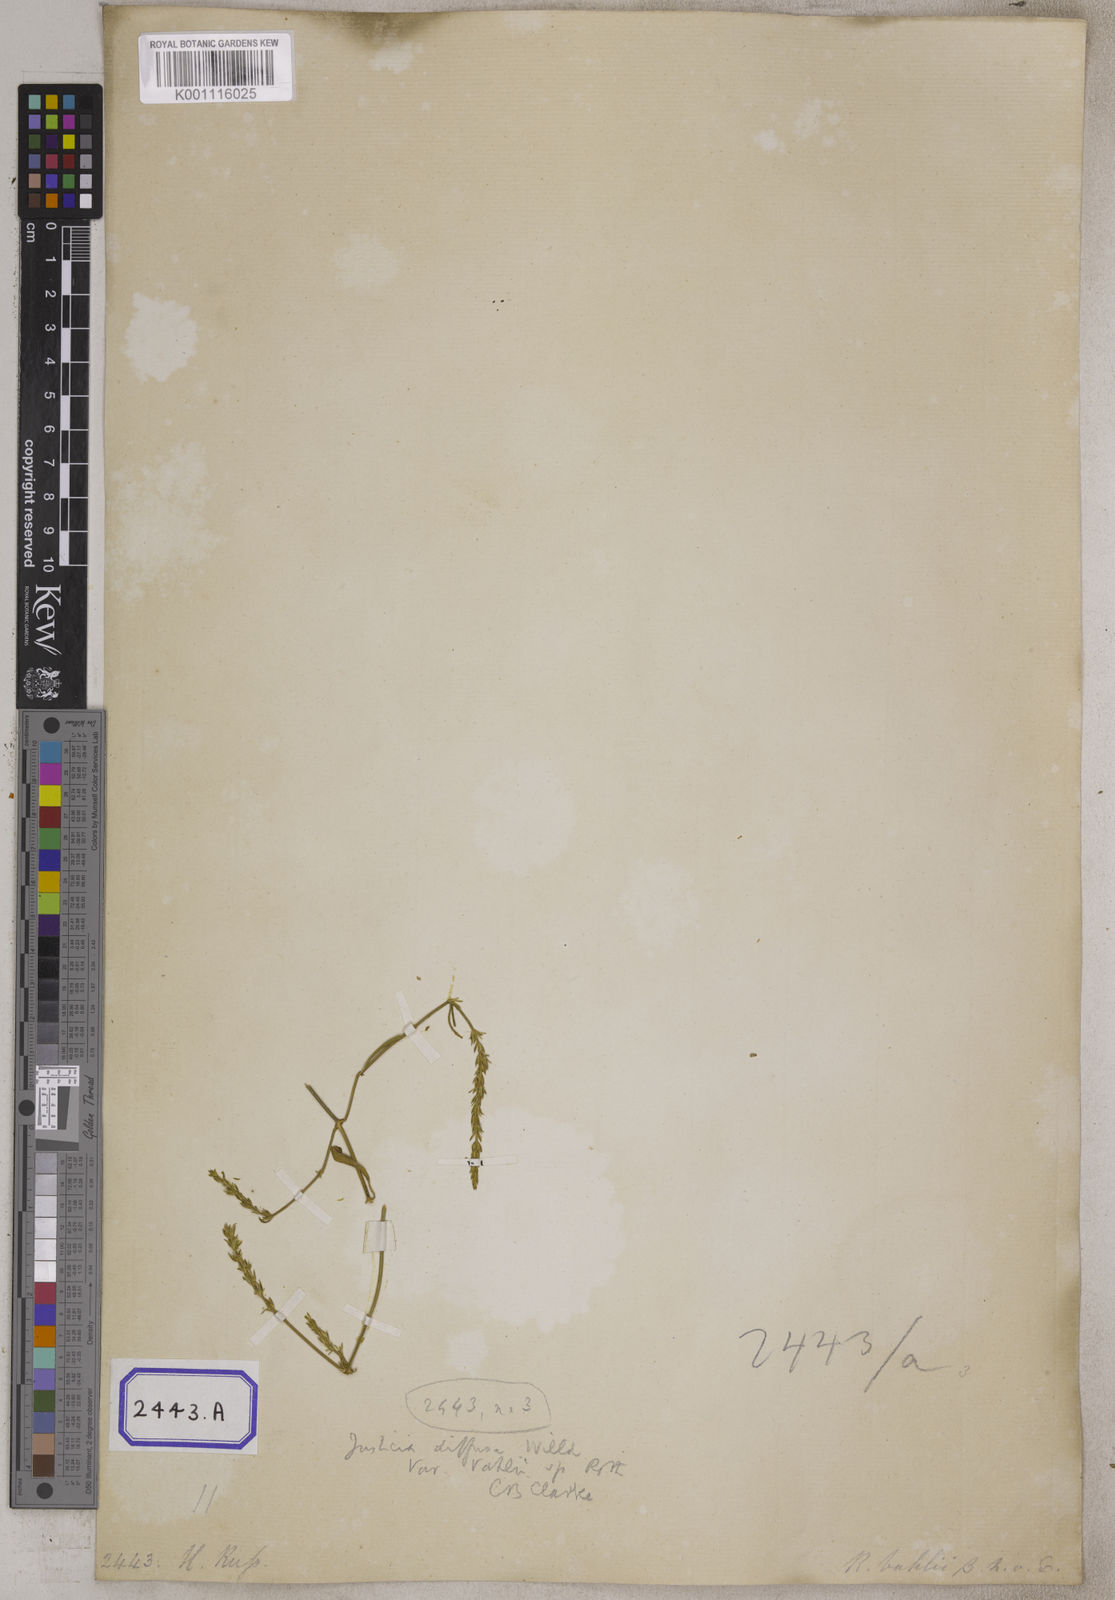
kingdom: Plantae
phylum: Tracheophyta
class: Magnoliopsida
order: Lamiales
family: Acanthaceae
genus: Rostellularia
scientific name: Rostellularia diffusa
